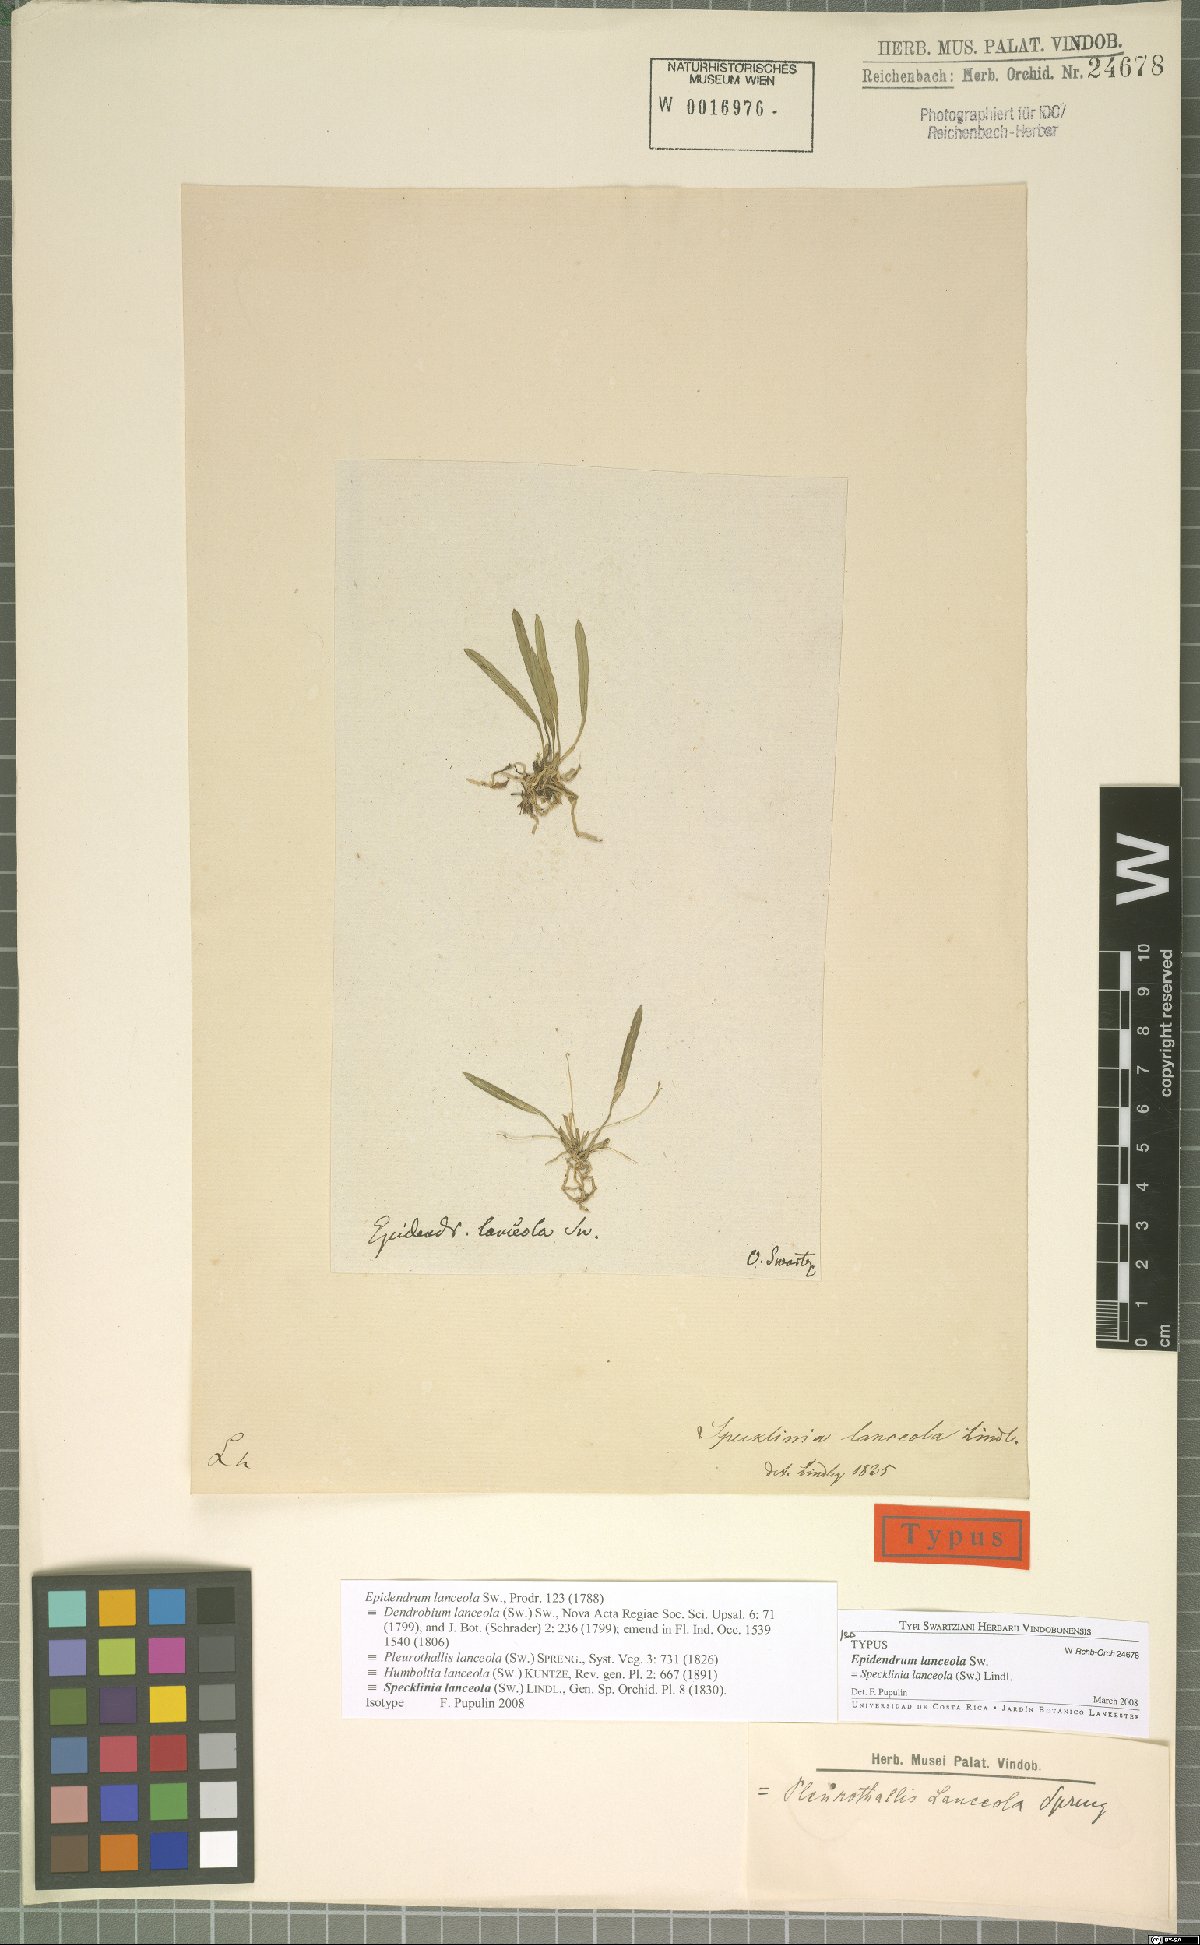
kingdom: Plantae
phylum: Tracheophyta
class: Liliopsida
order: Asparagales
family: Orchidaceae
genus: Specklinia
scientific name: Specklinia lanceola
